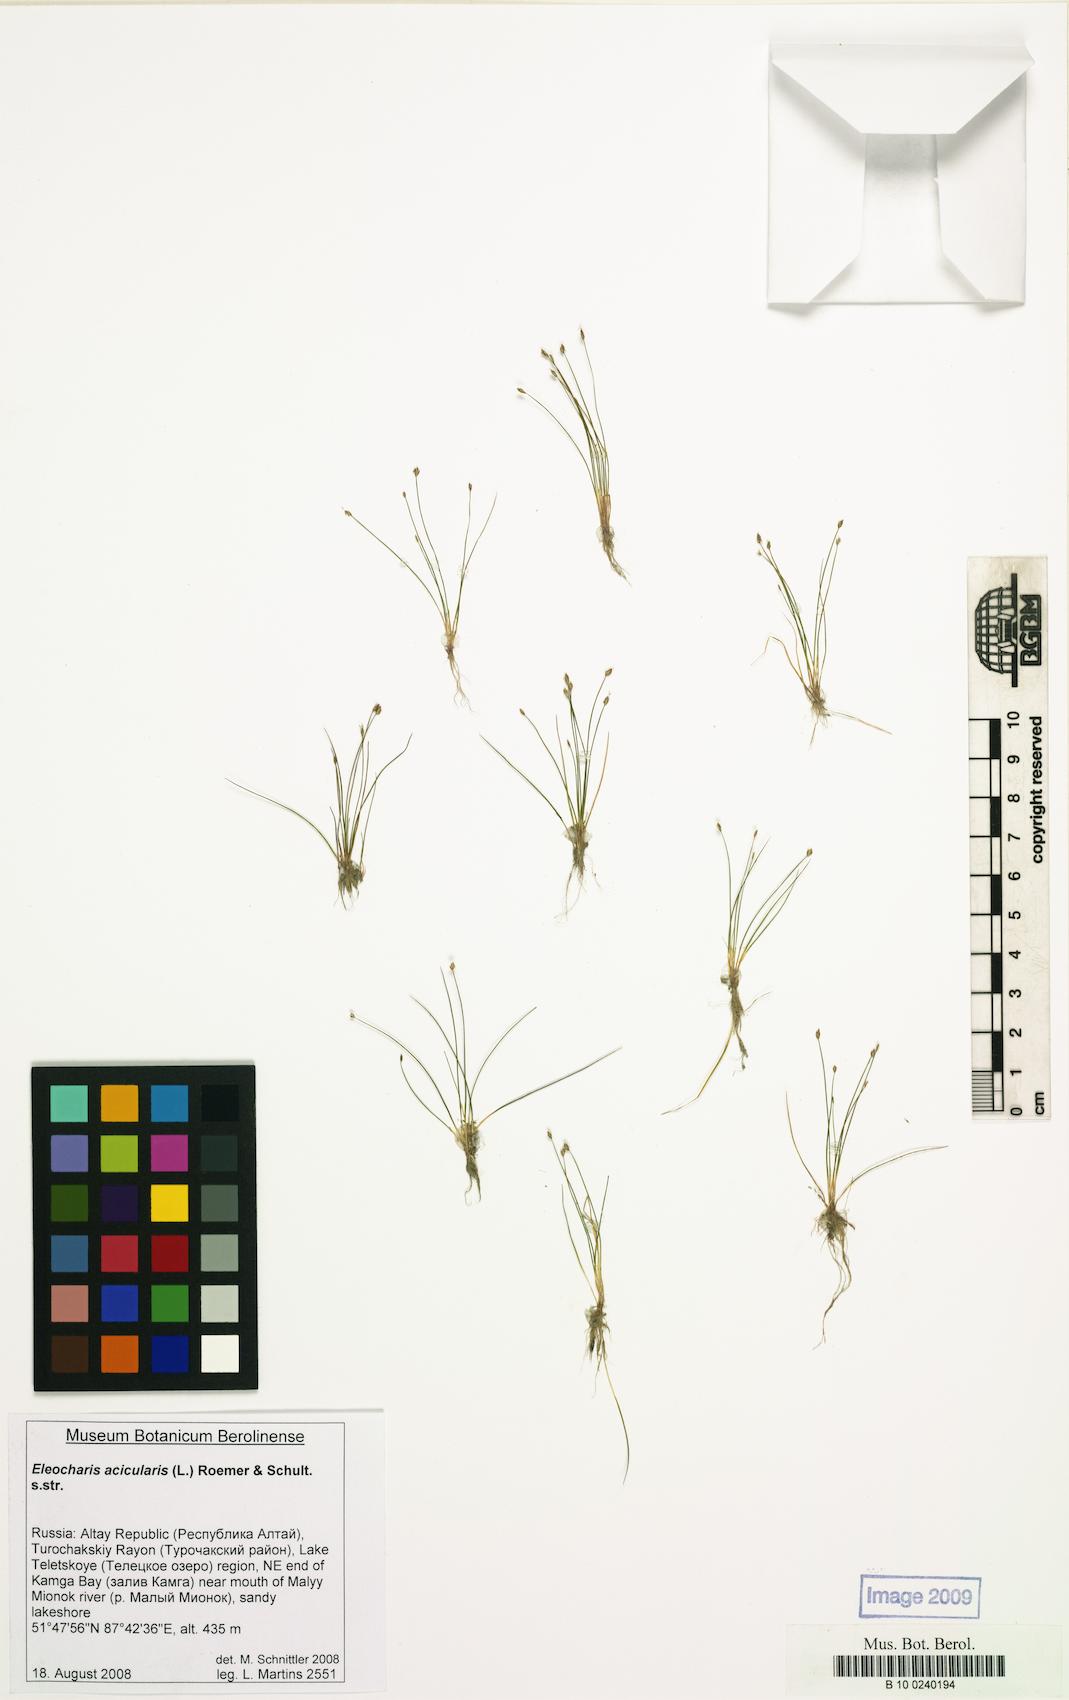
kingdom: Plantae
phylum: Tracheophyta
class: Liliopsida
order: Poales
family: Cyperaceae
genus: Eleocharis
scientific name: Eleocharis acicularis
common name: Needle spike-rush
